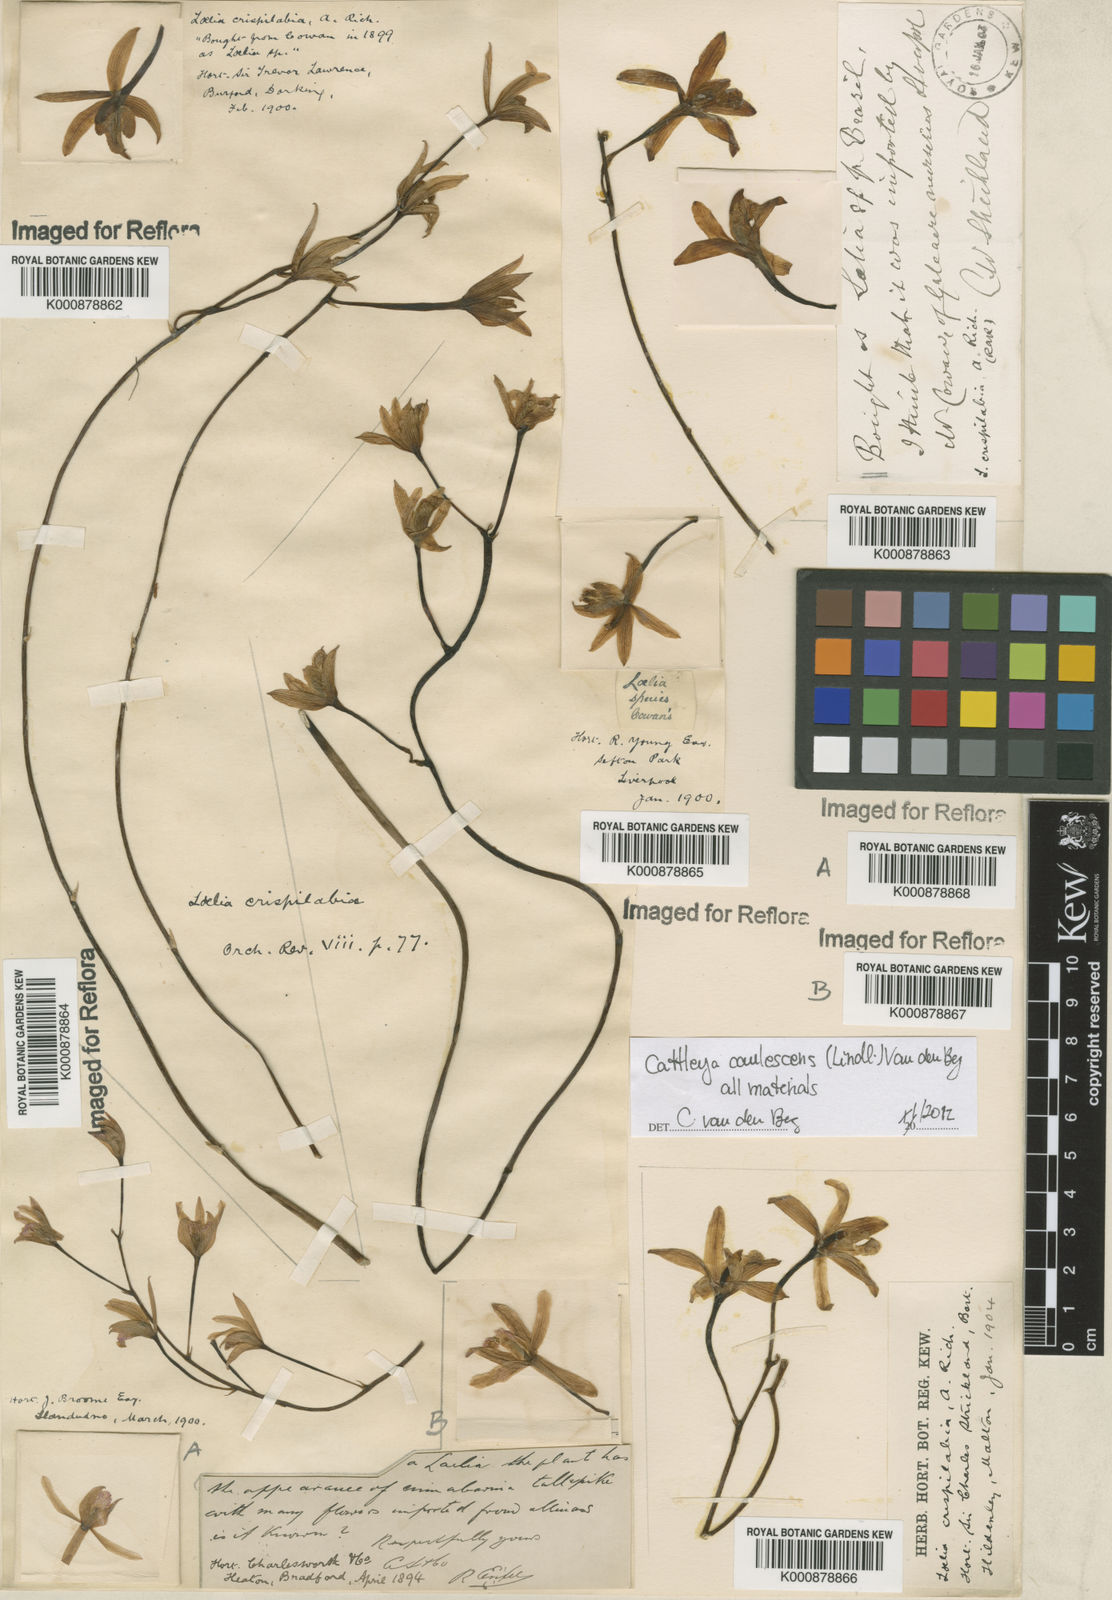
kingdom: Plantae
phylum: Tracheophyta
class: Liliopsida
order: Asparagales
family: Orchidaceae
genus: Cattleya
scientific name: Cattleya caulescens
